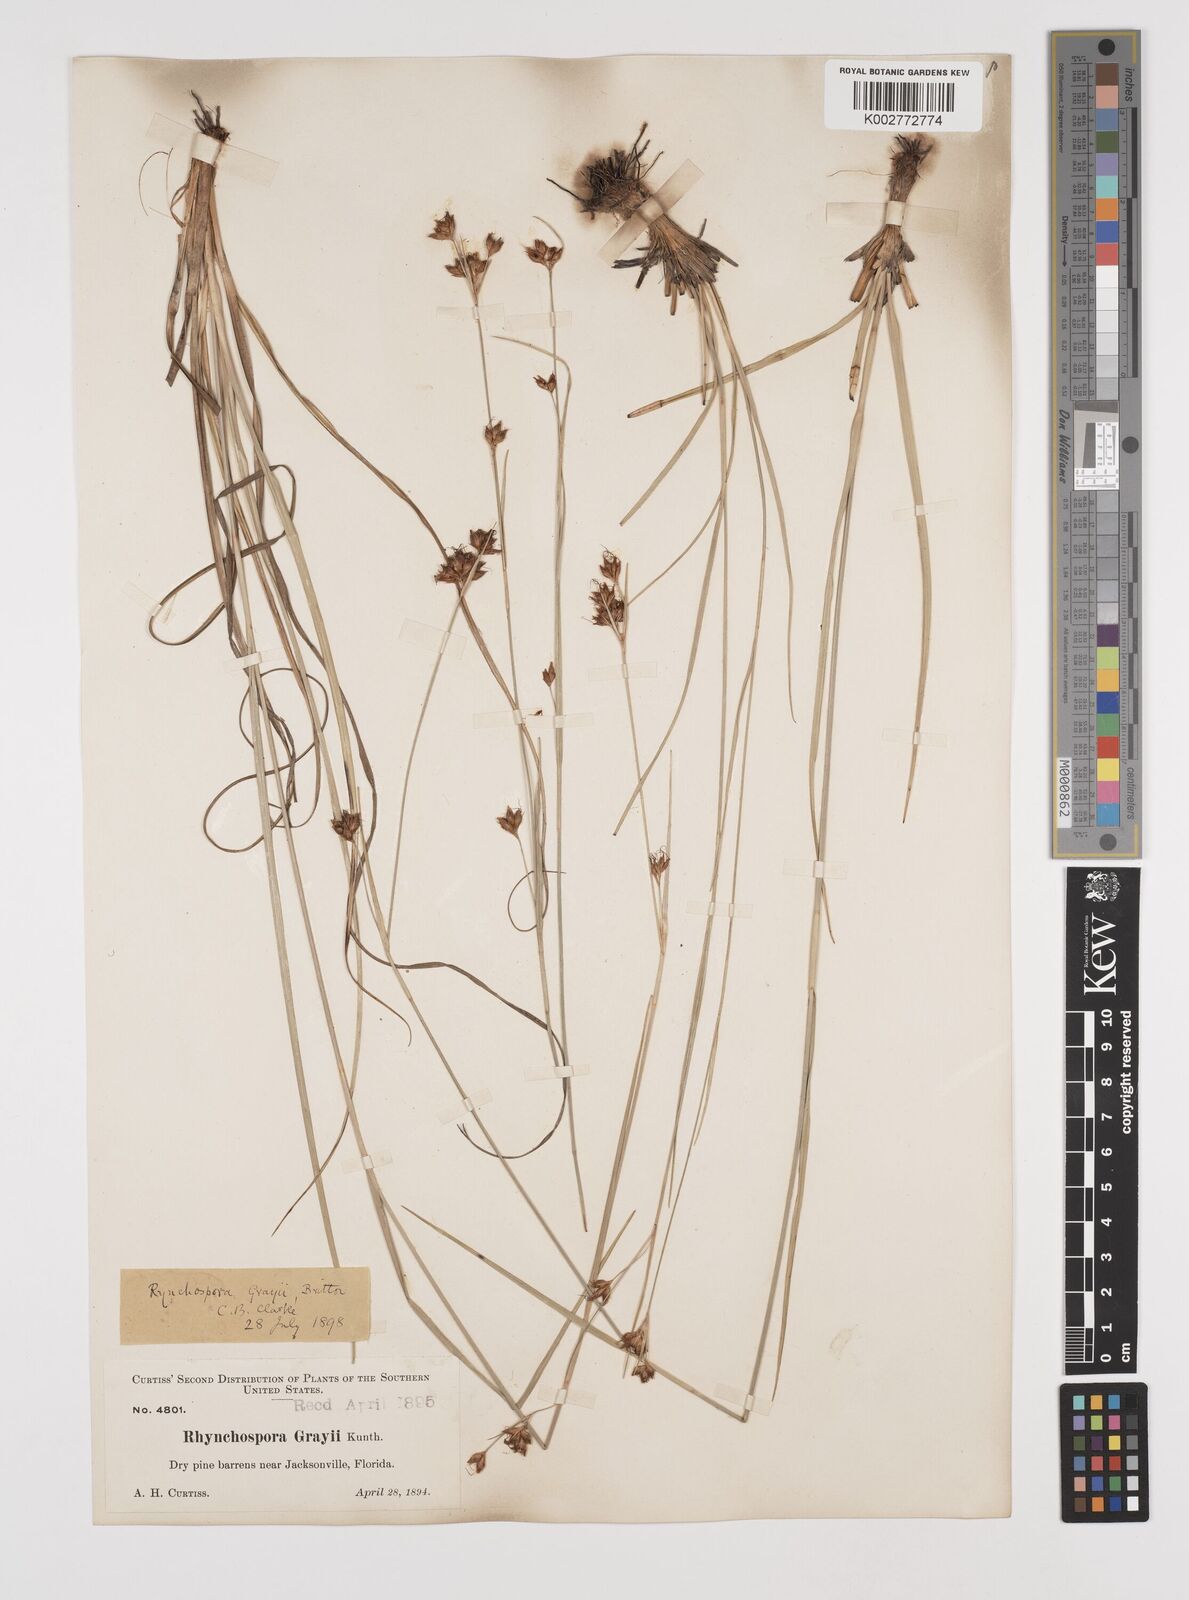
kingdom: Plantae
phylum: Tracheophyta
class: Liliopsida
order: Poales
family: Cyperaceae
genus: Rhynchospora
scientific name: Rhynchospora grayi
